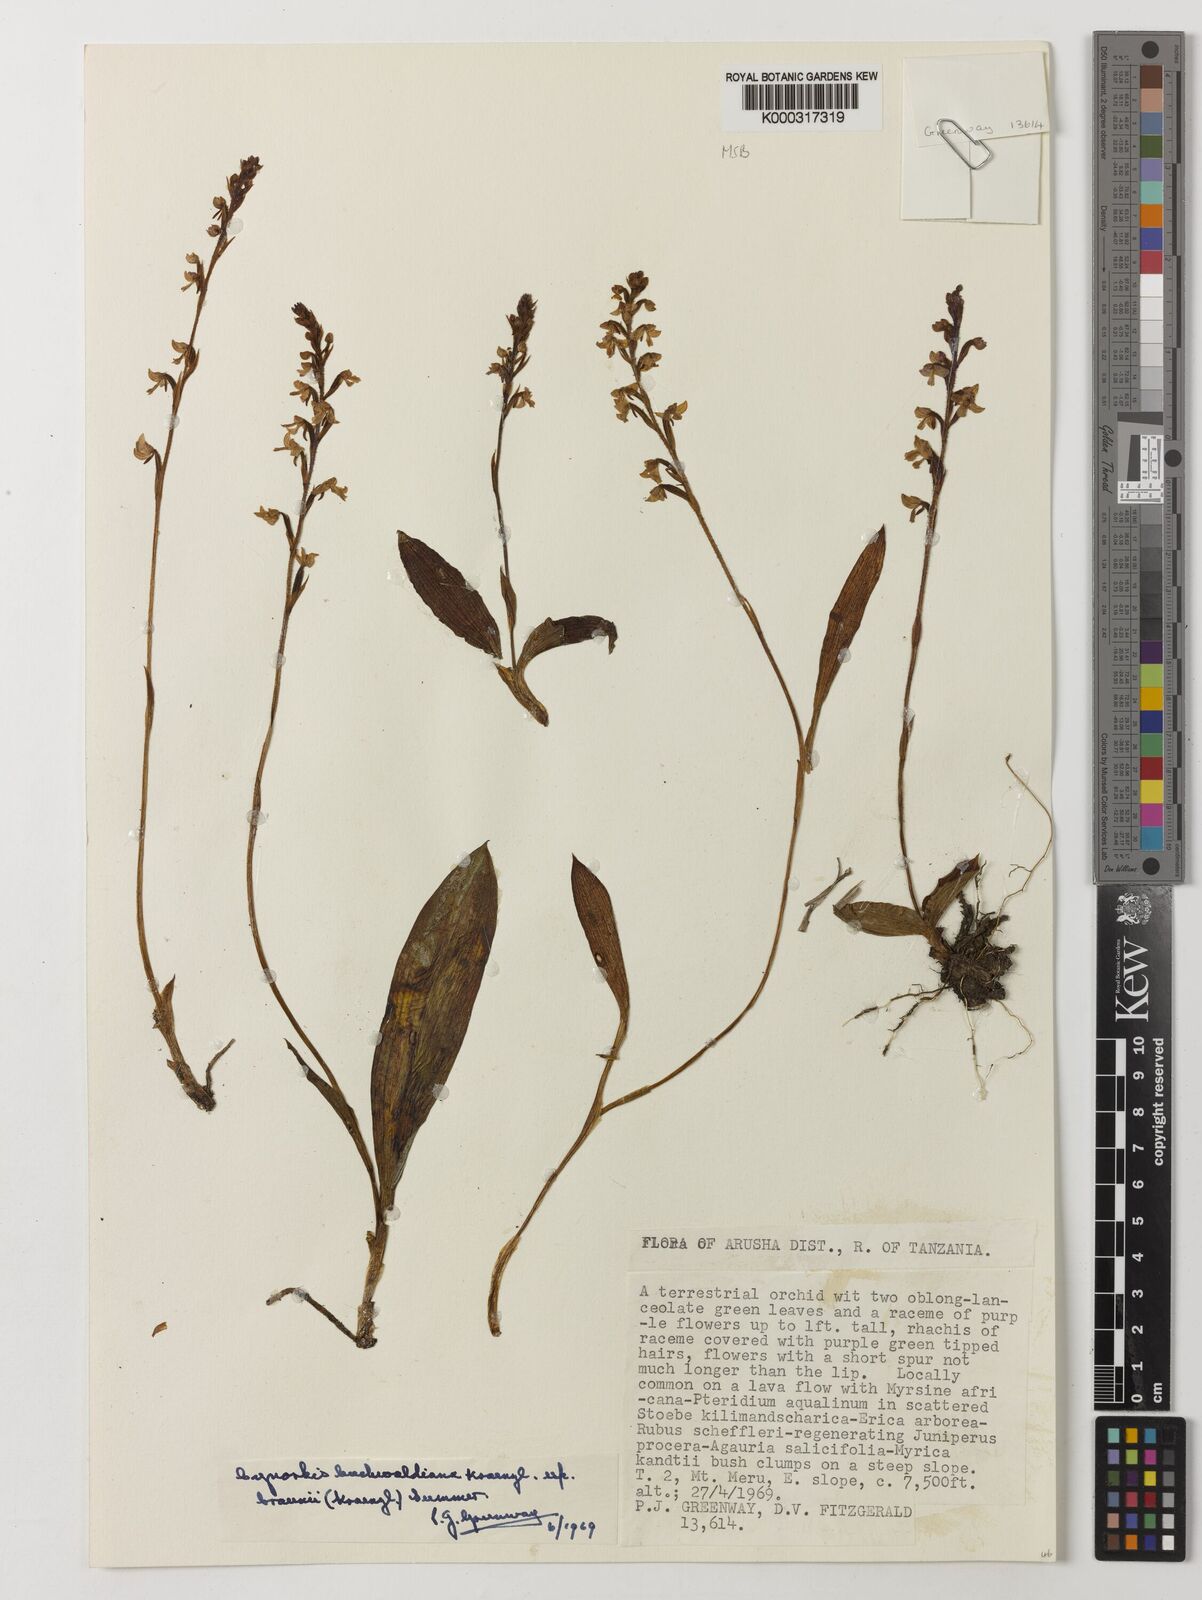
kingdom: Plantae
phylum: Tracheophyta
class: Liliopsida
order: Asparagales
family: Orchidaceae
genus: Cynorkis
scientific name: Cynorkis buchwaldiana
